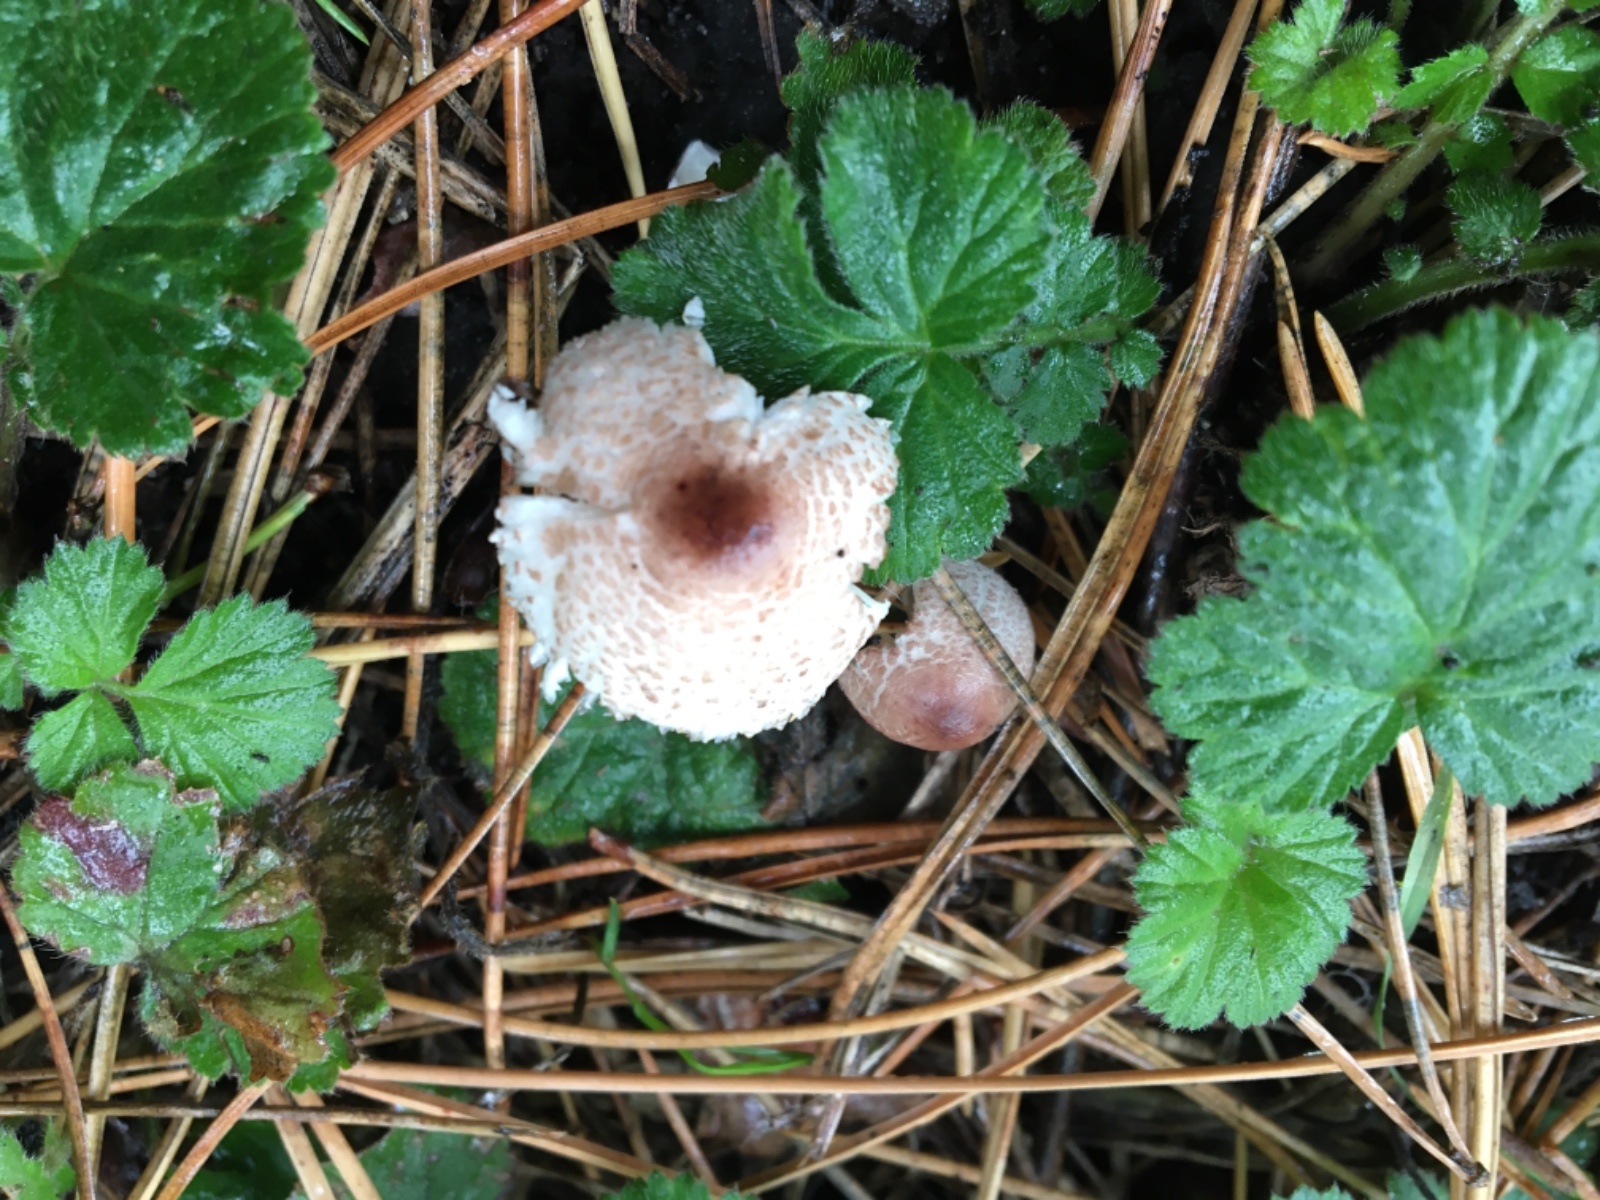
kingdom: Fungi
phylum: Basidiomycota
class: Agaricomycetes
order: Agaricales
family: Agaricaceae
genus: Lepiota
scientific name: Lepiota lilacea
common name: lillabrun parasolhat
